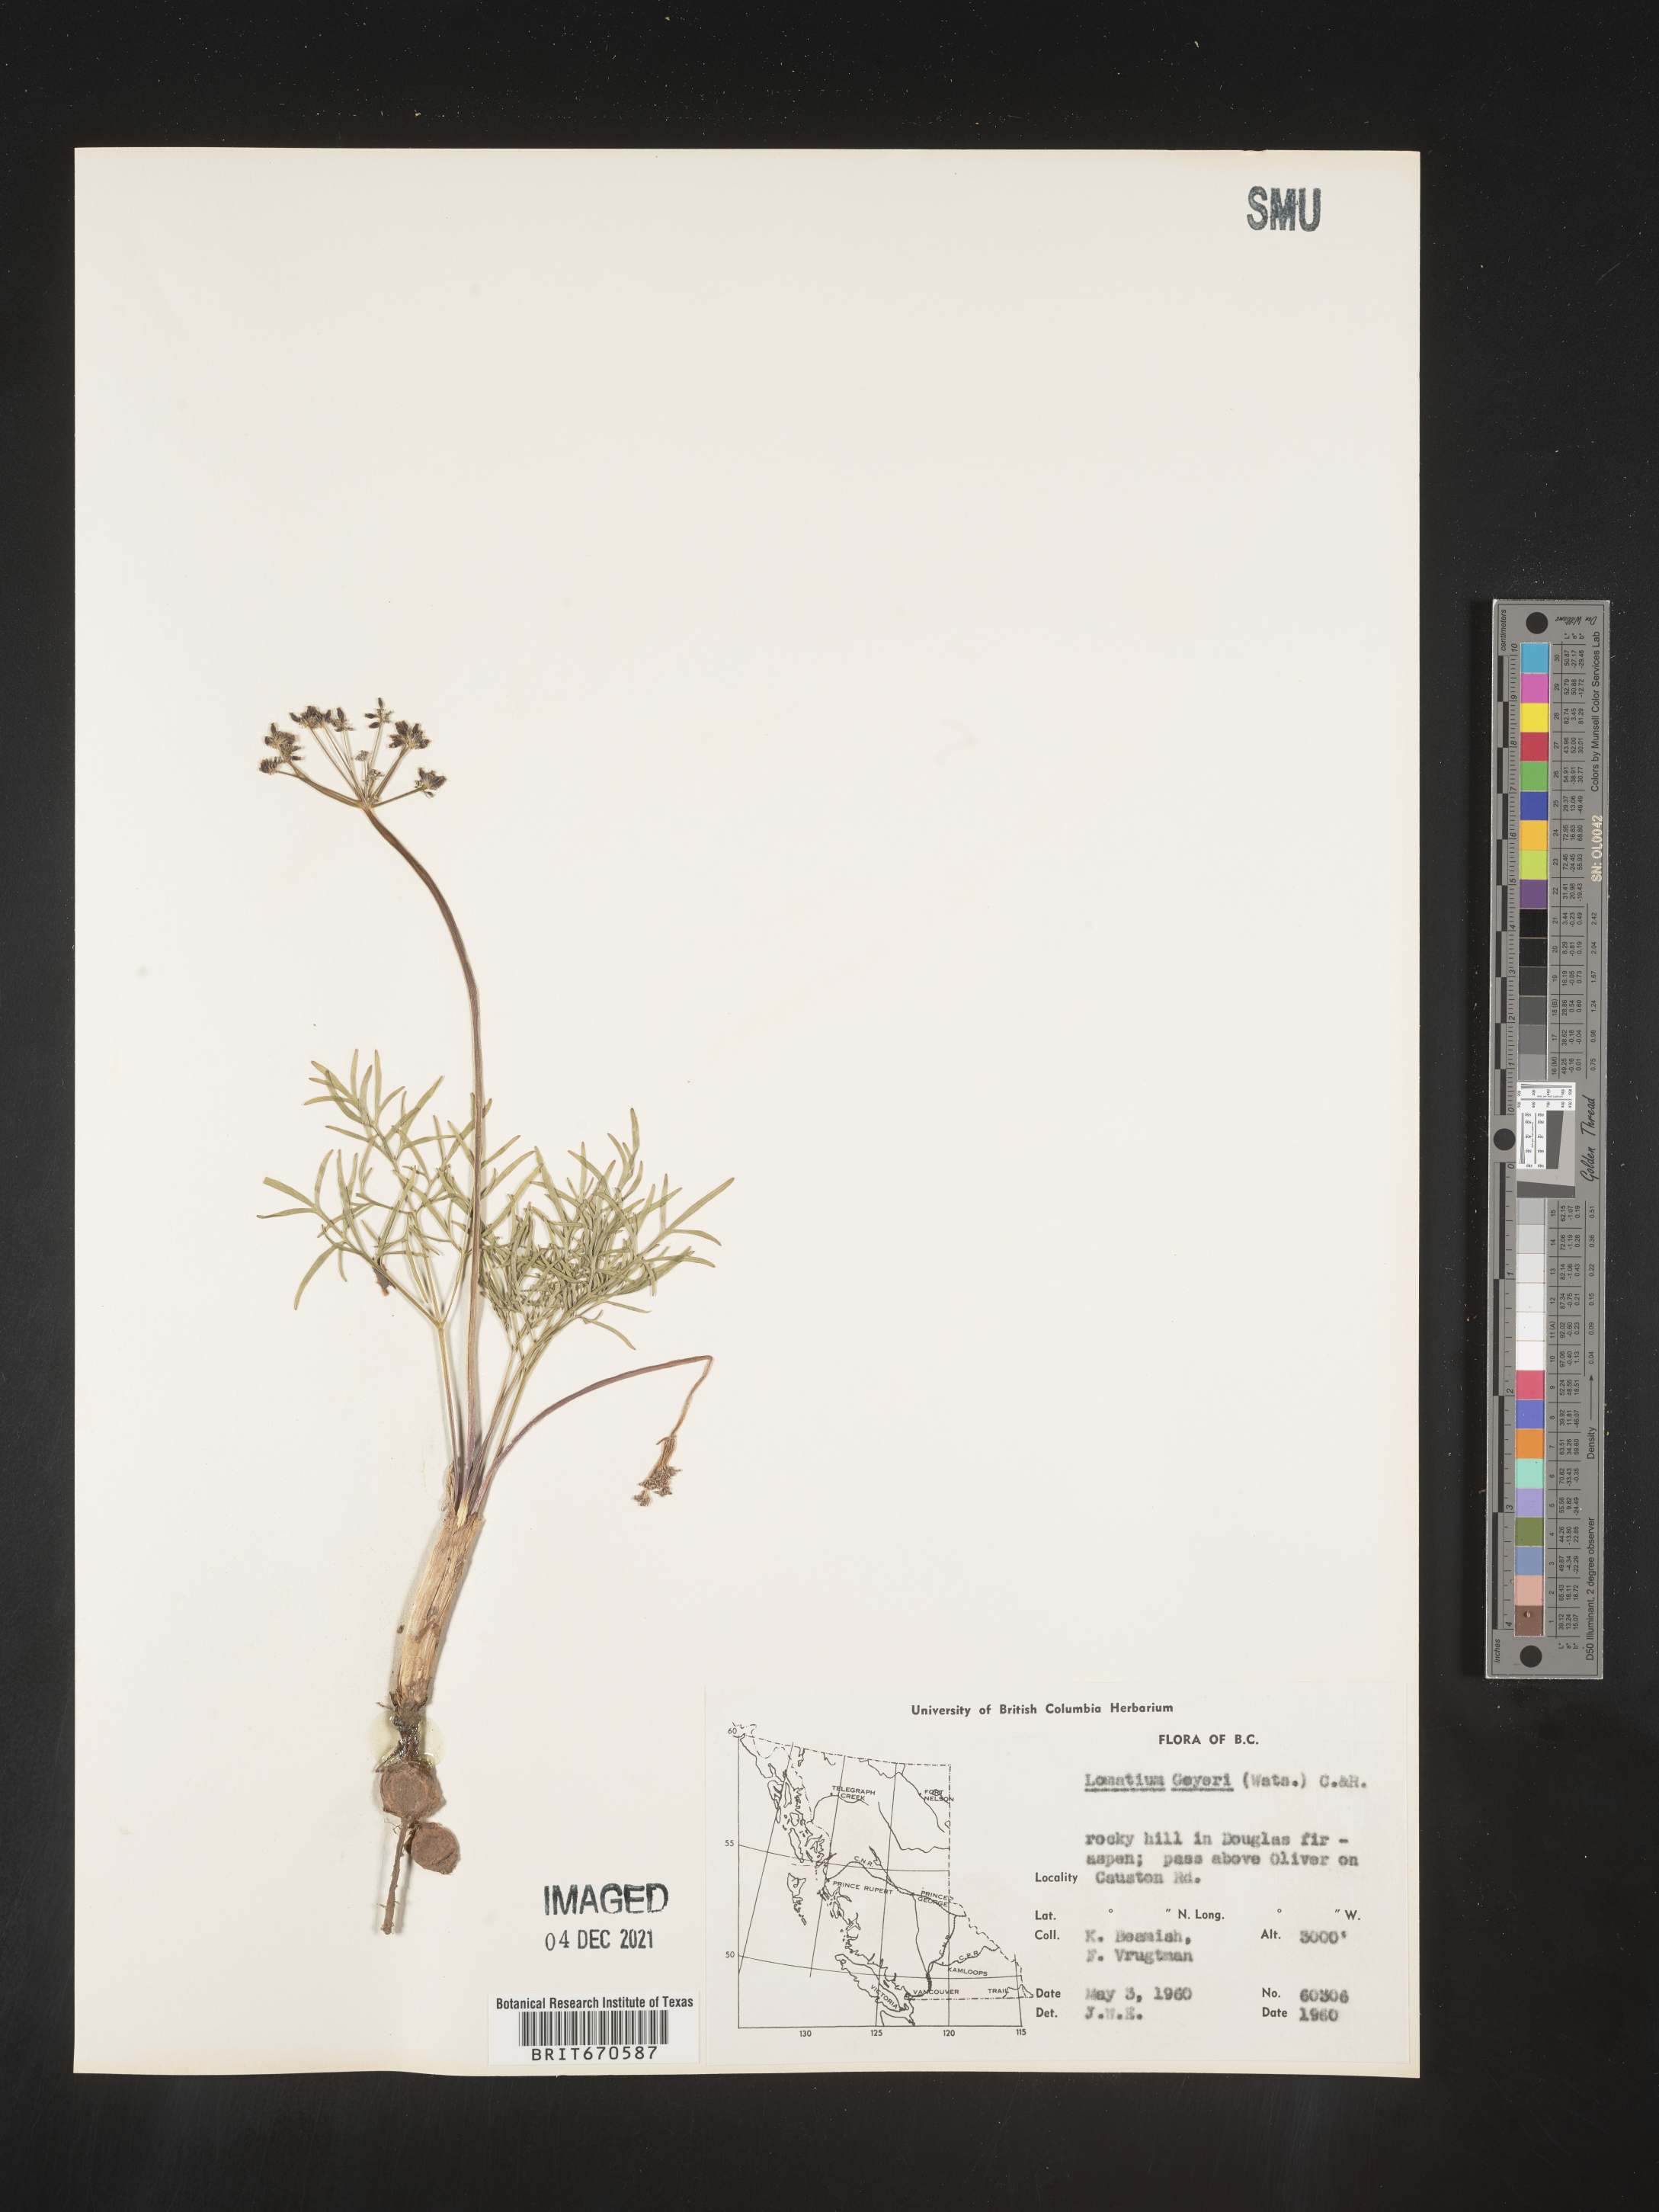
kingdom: Plantae
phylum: Tracheophyta
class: Magnoliopsida
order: Apiales
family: Apiaceae
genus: Lomatium
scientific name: Lomatium geyeri
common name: Geyer's biscuitroot
